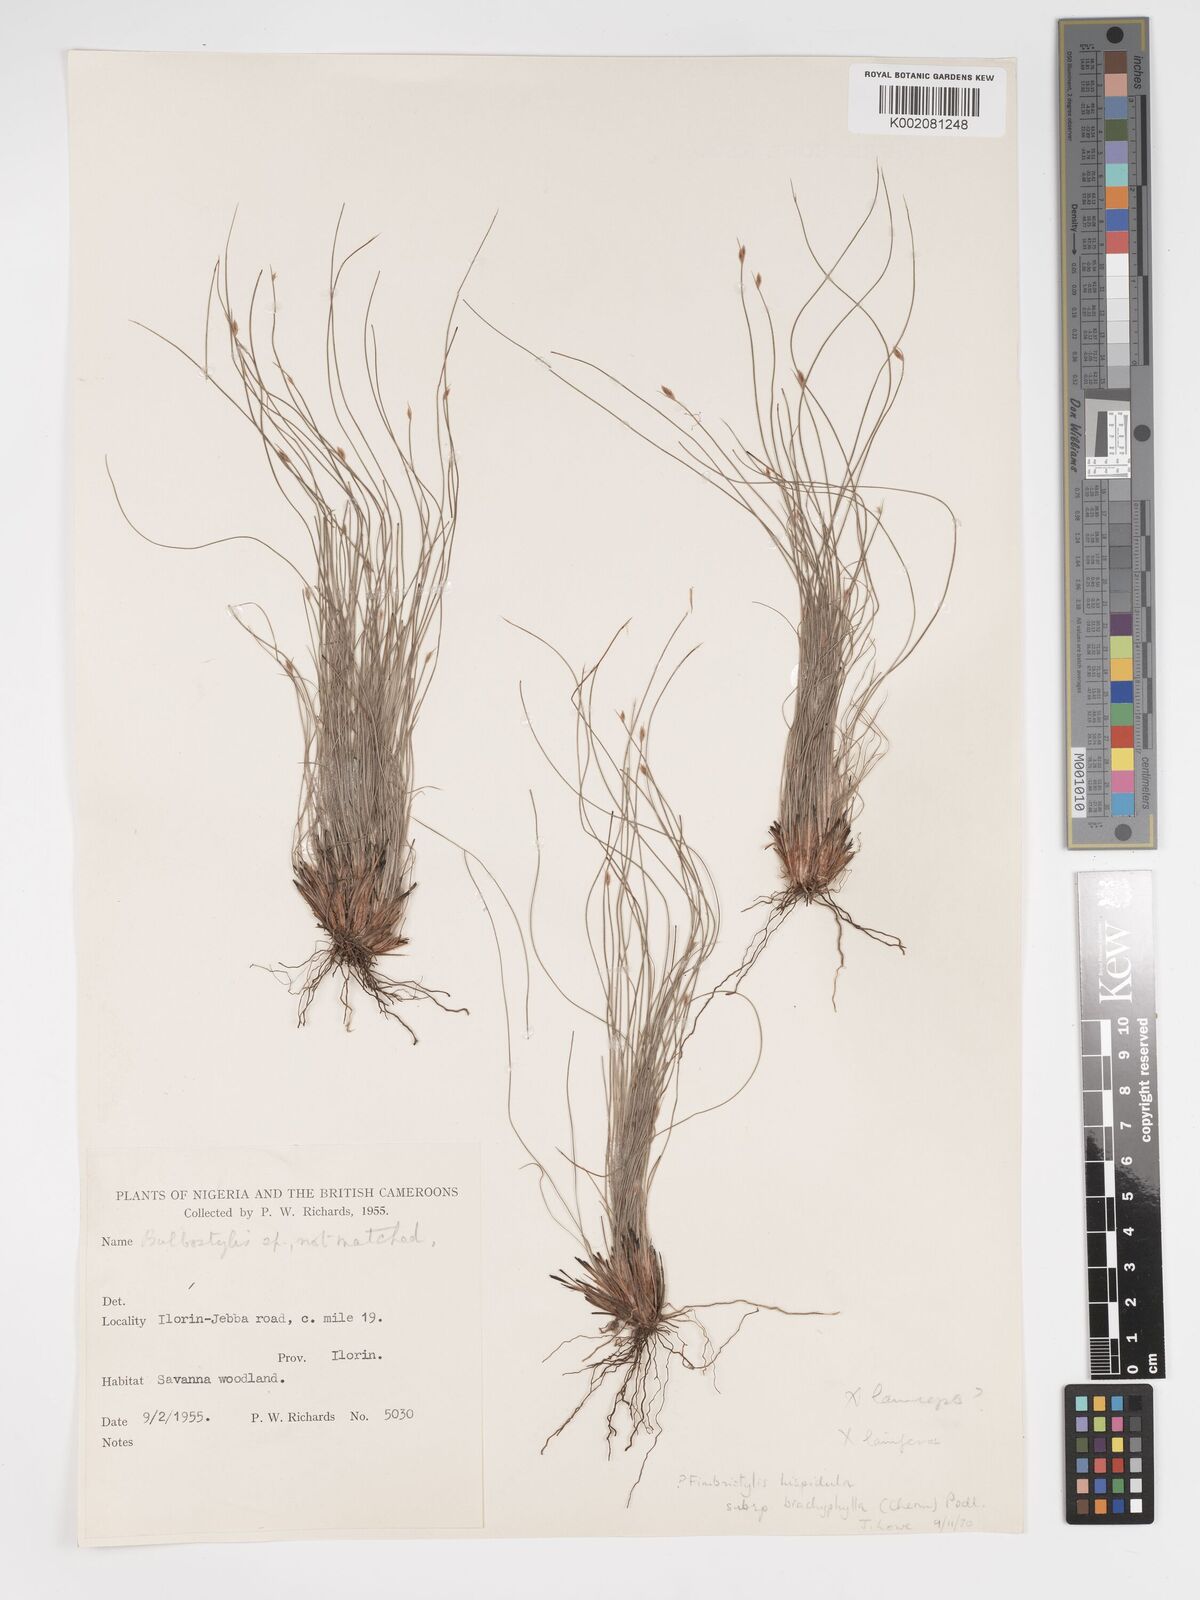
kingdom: Plantae
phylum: Tracheophyta
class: Liliopsida
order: Poales
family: Cyperaceae
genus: Bulbostylis
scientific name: Bulbostylis hispidula
